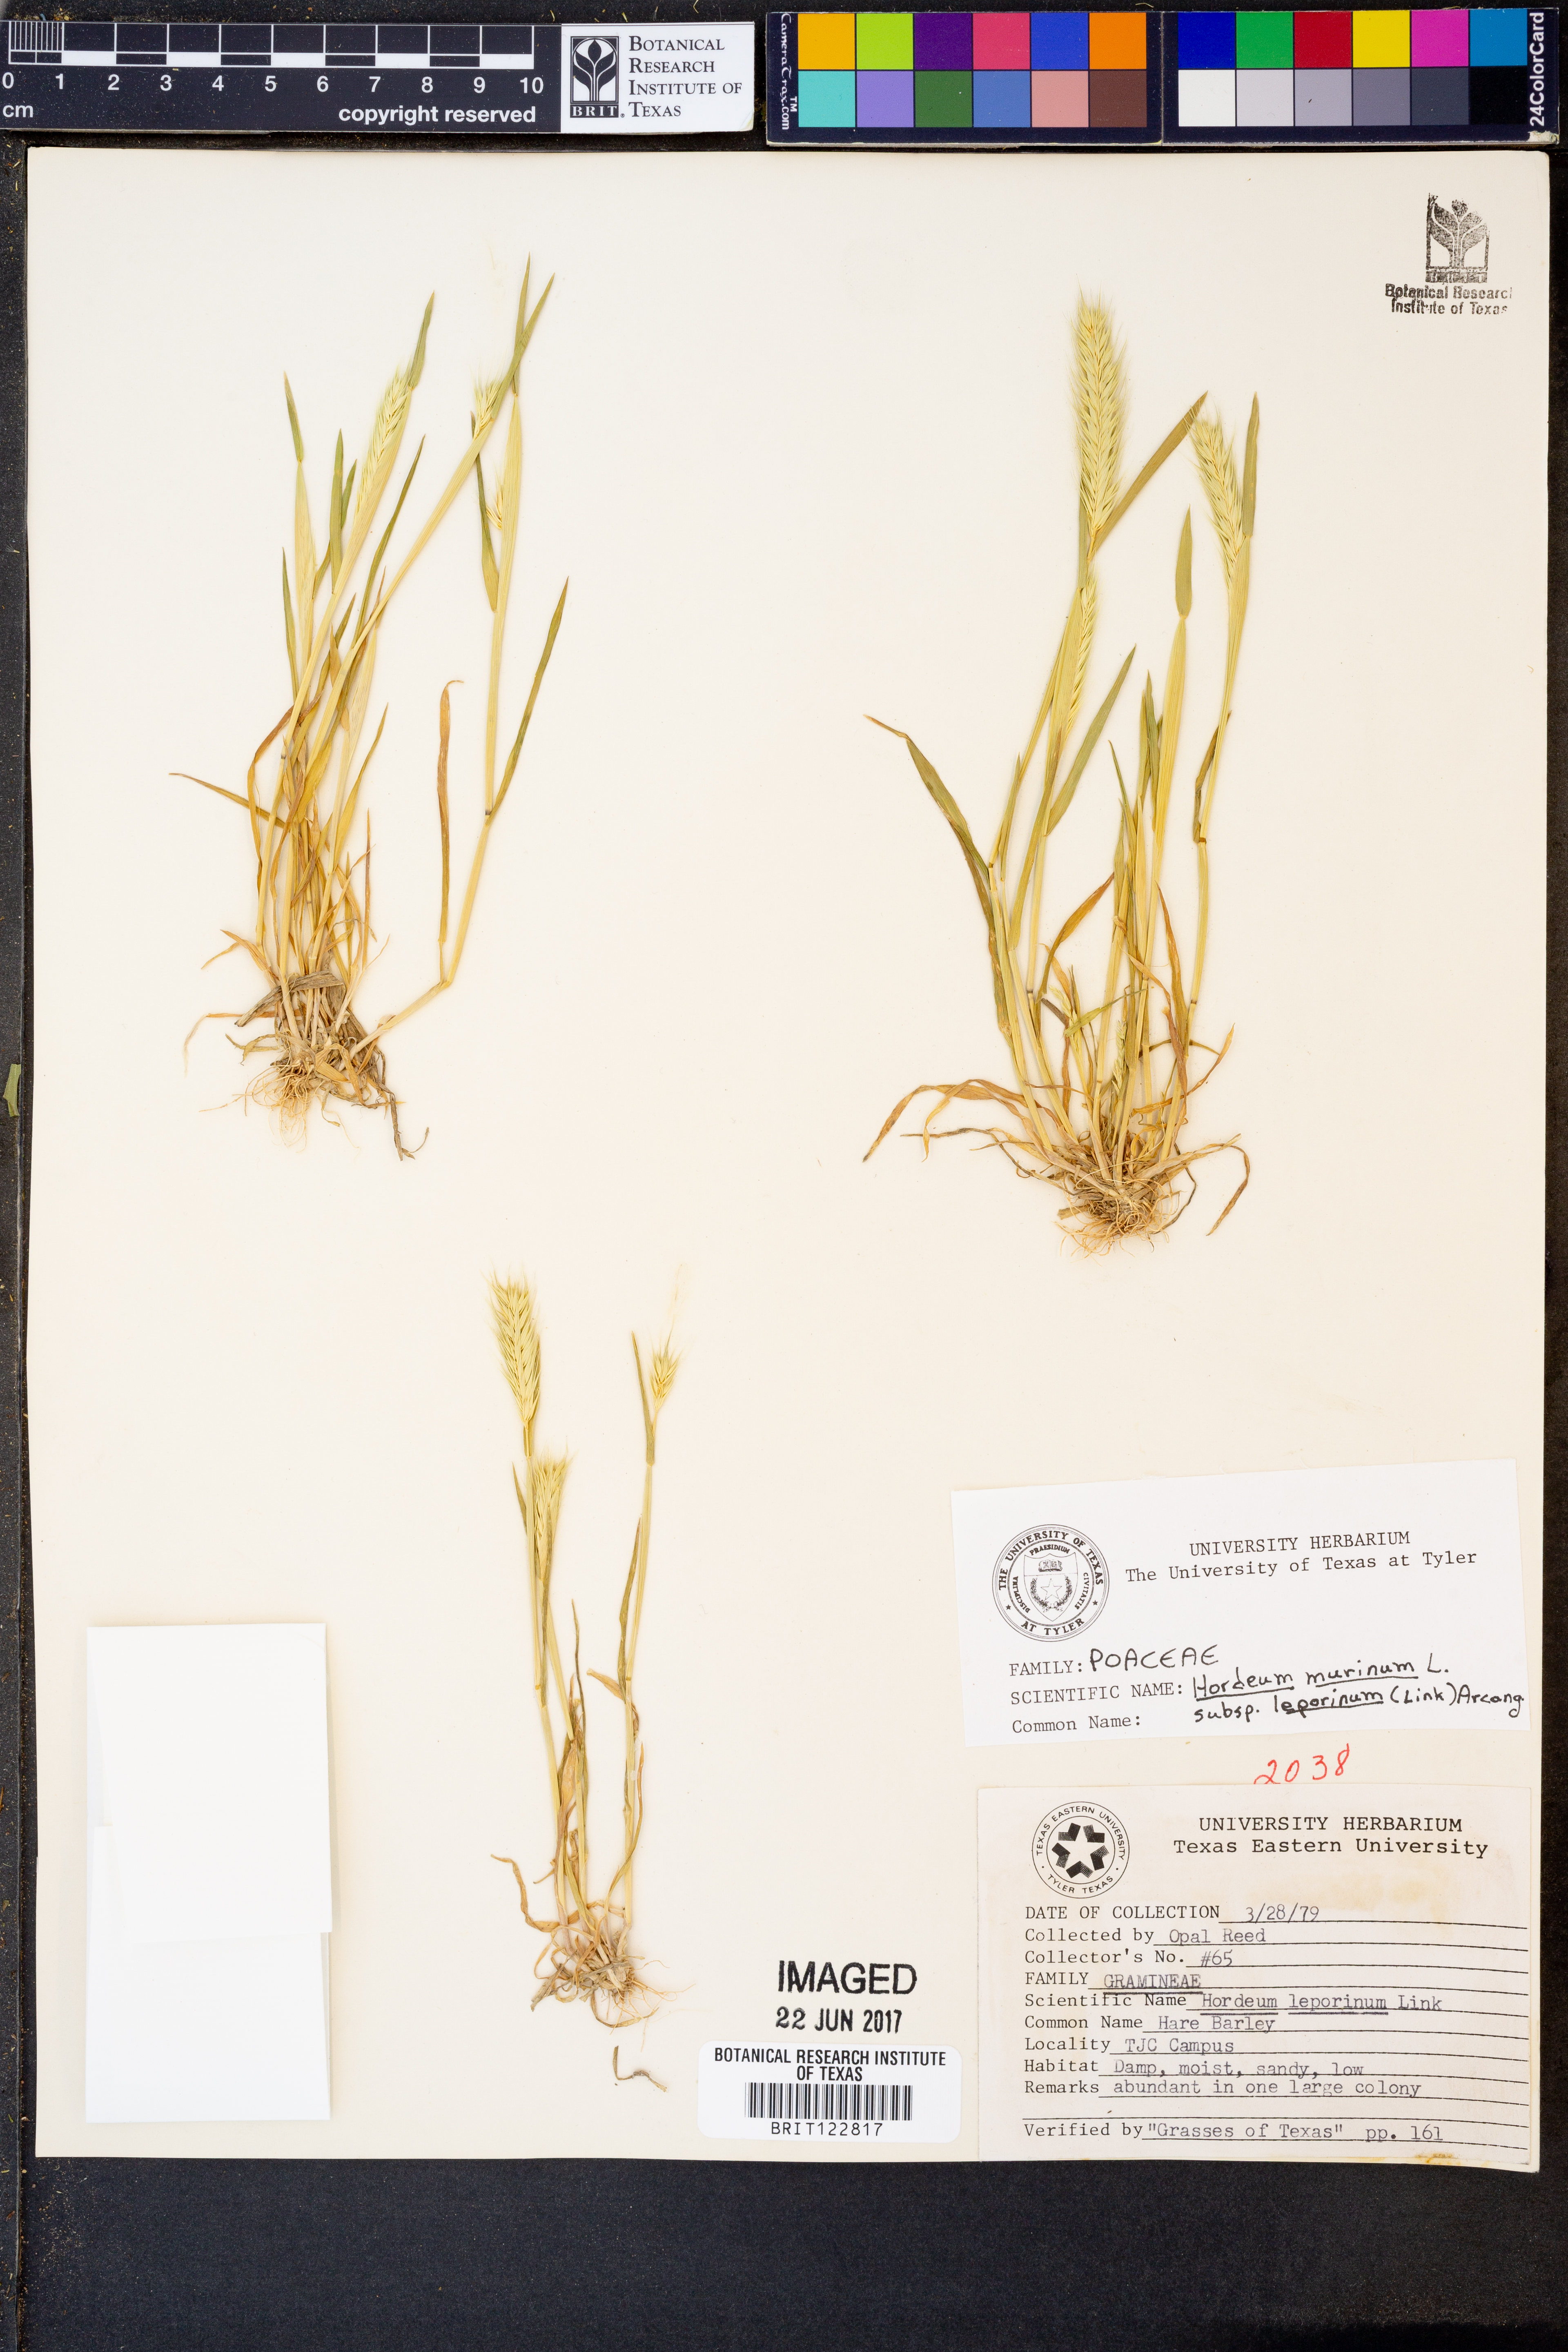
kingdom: Plantae
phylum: Tracheophyta
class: Liliopsida
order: Poales
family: Poaceae
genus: Hordeum
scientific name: Hordeum murinum
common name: Wall barley
